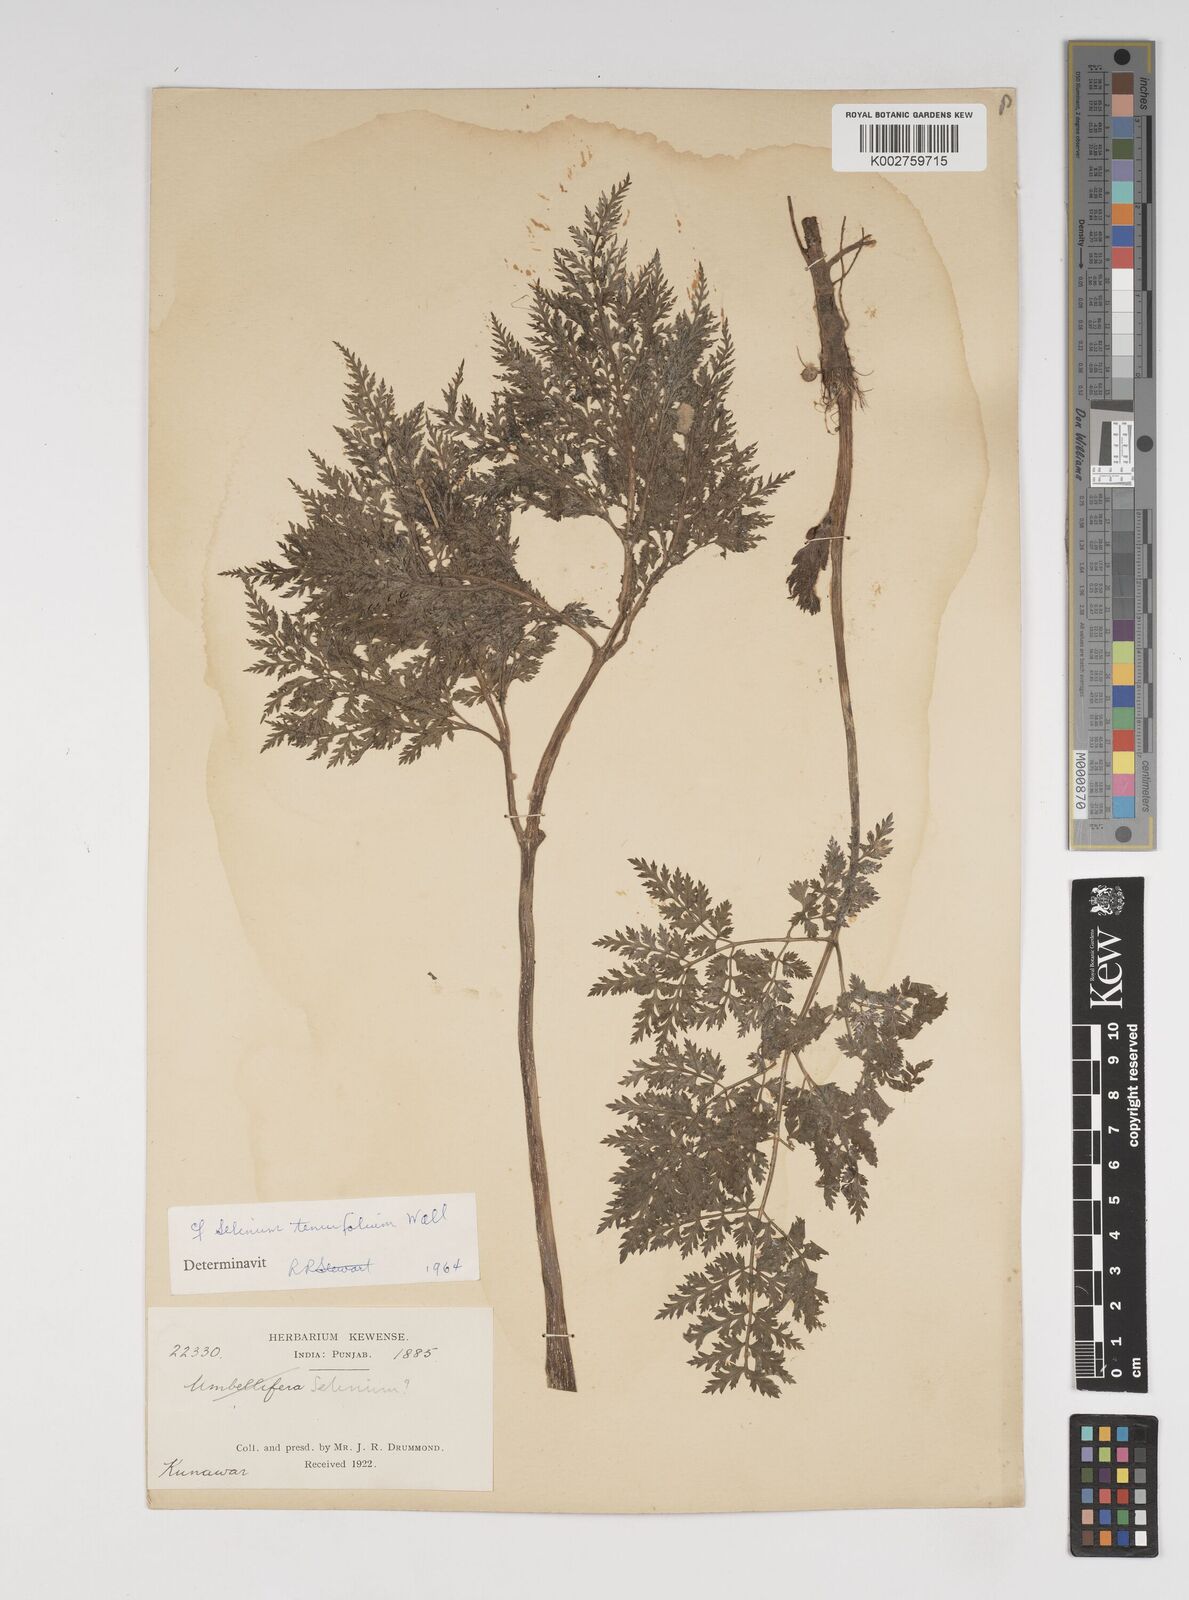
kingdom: Plantae
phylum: Tracheophyta
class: Magnoliopsida
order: Apiales
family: Apiaceae
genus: Selinum
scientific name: Selinum
